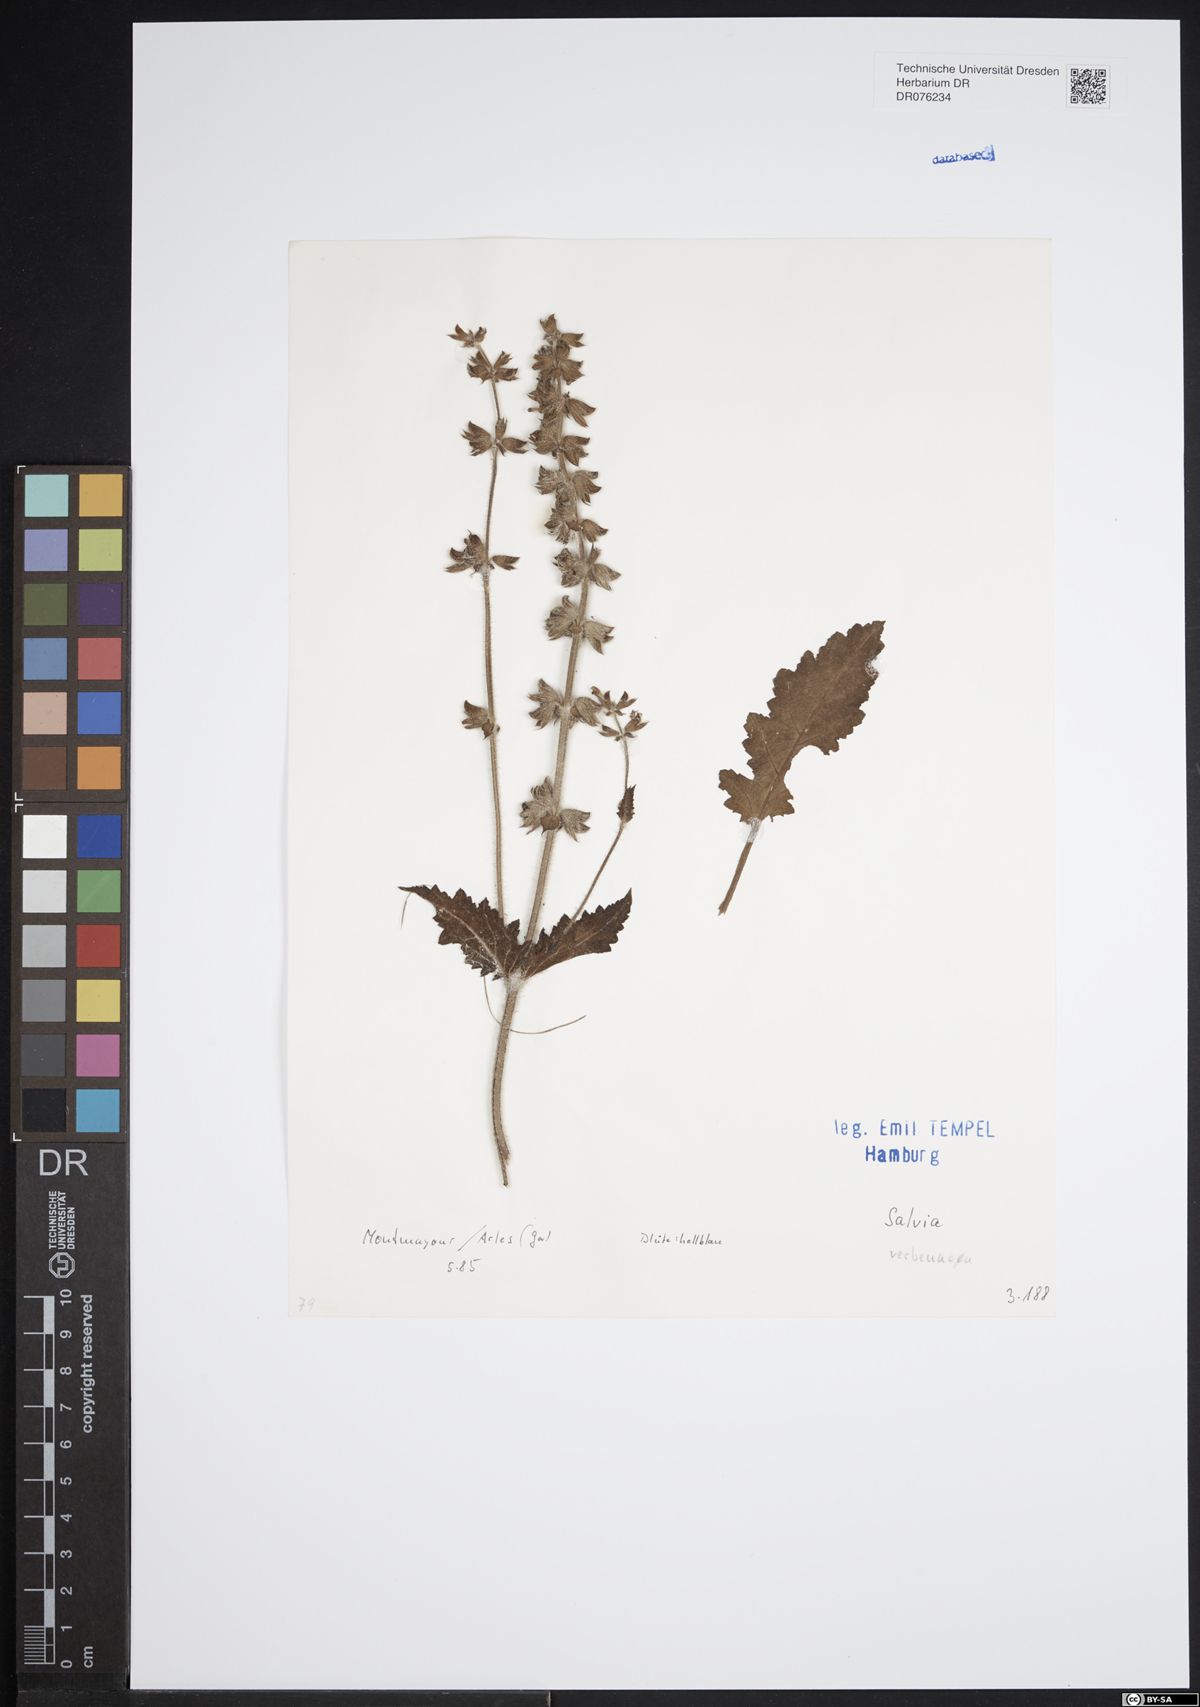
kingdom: Plantae
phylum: Tracheophyta
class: Magnoliopsida
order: Lamiales
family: Lamiaceae
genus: Salvia
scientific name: Salvia verbenaca
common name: Wild clary
